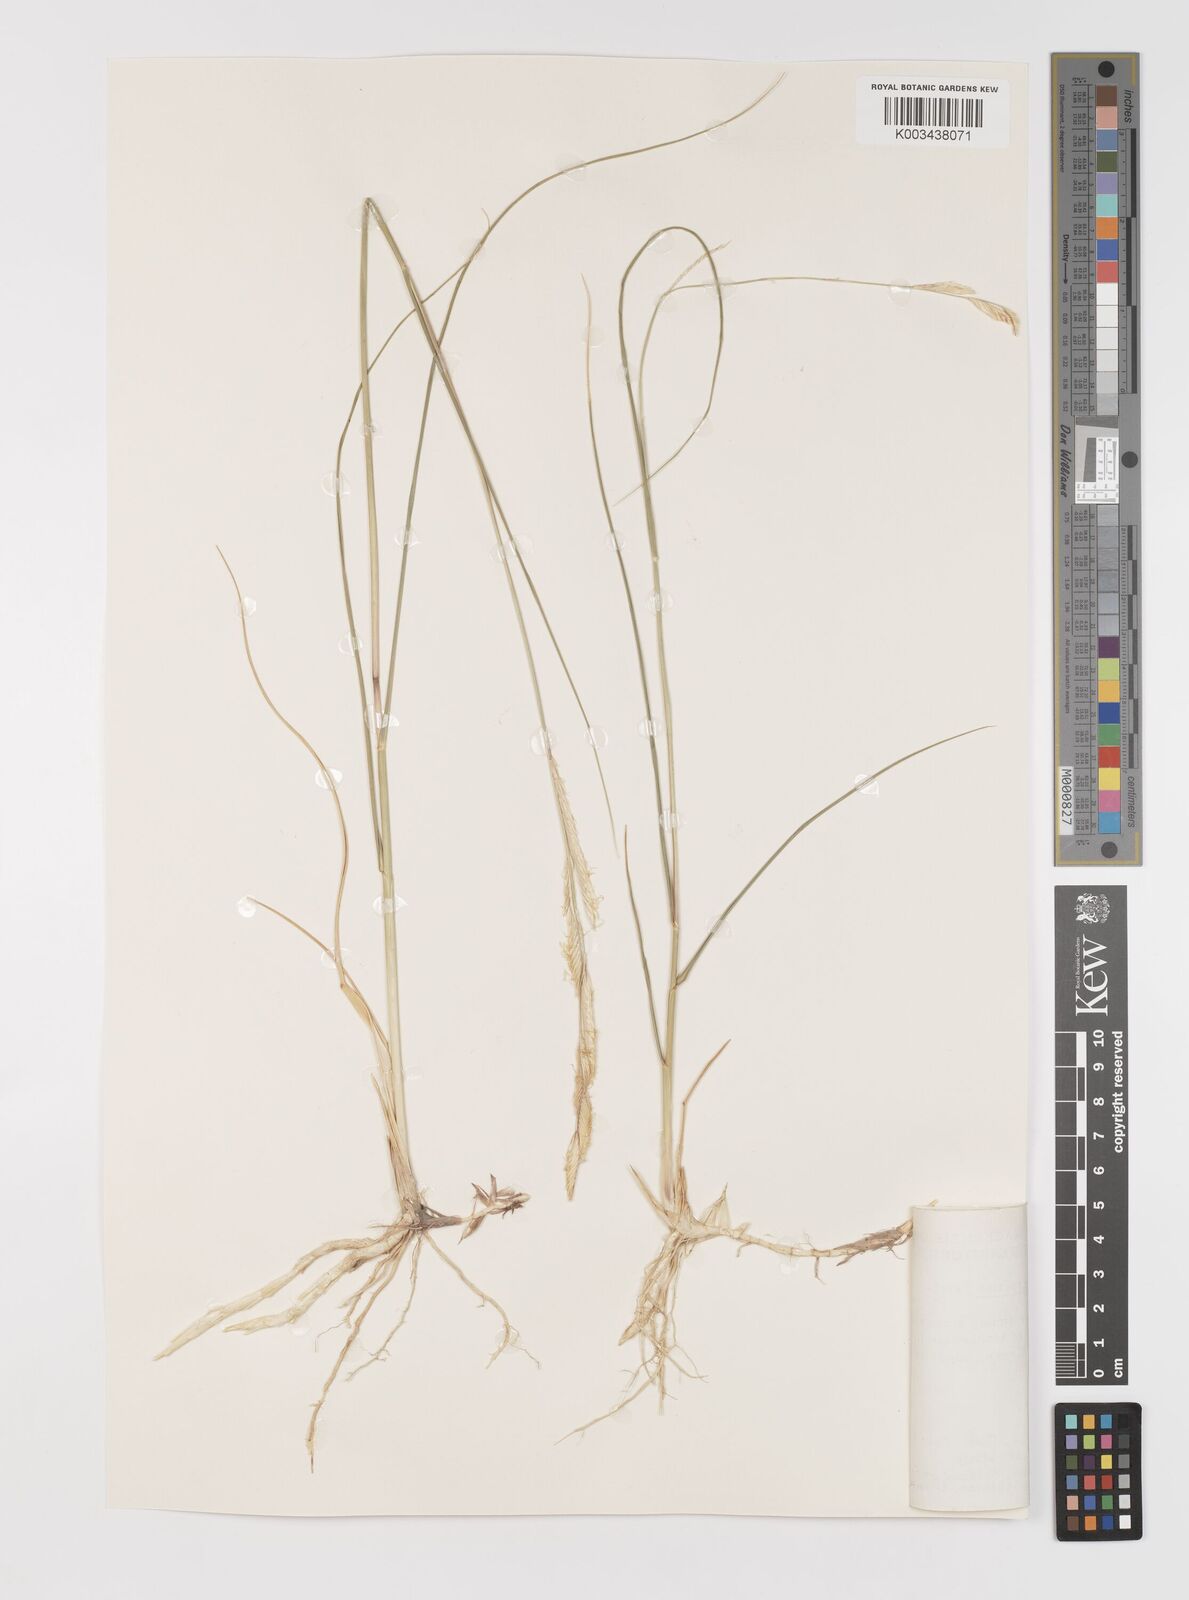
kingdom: Plantae
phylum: Tracheophyta
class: Liliopsida
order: Poales
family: Poaceae
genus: Sporobolus
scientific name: Sporobolus hookerianus
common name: Alkali cordgrass
